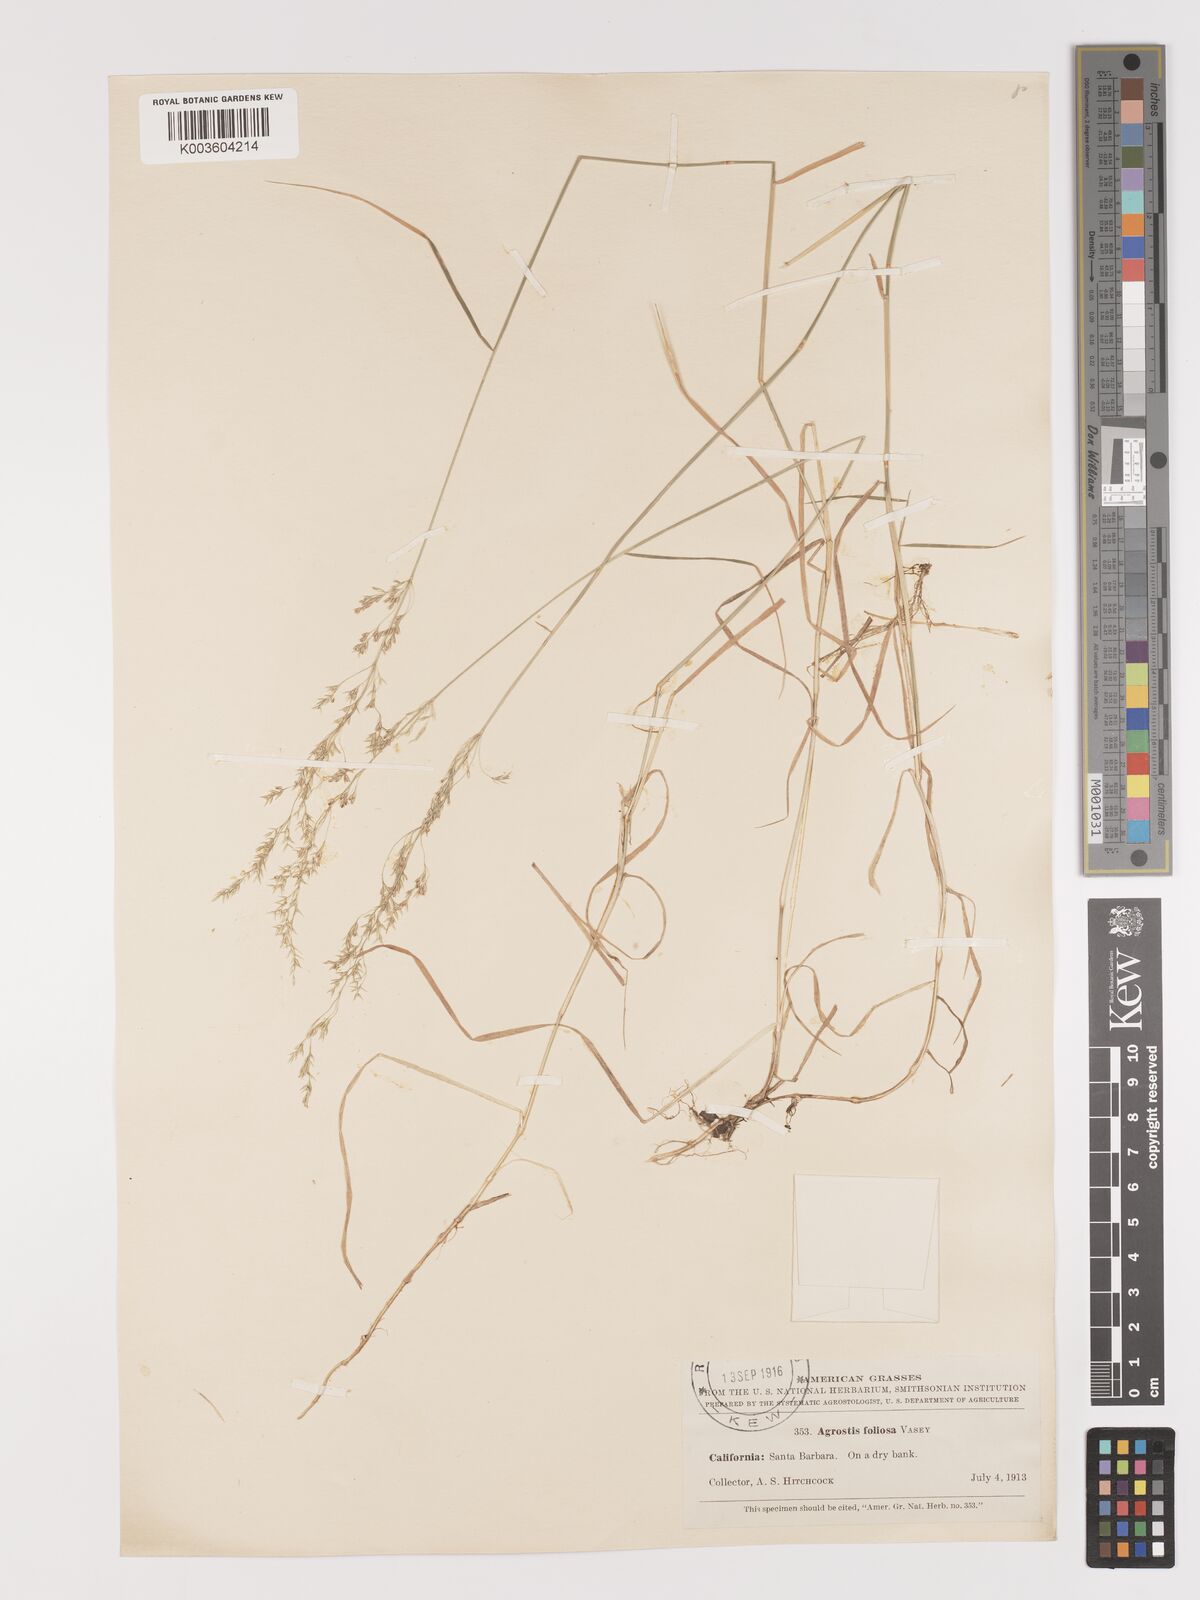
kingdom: Plantae
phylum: Tracheophyta
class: Liliopsida
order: Poales
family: Poaceae
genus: Agrostis
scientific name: Agrostis pallens
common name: Dune bent
